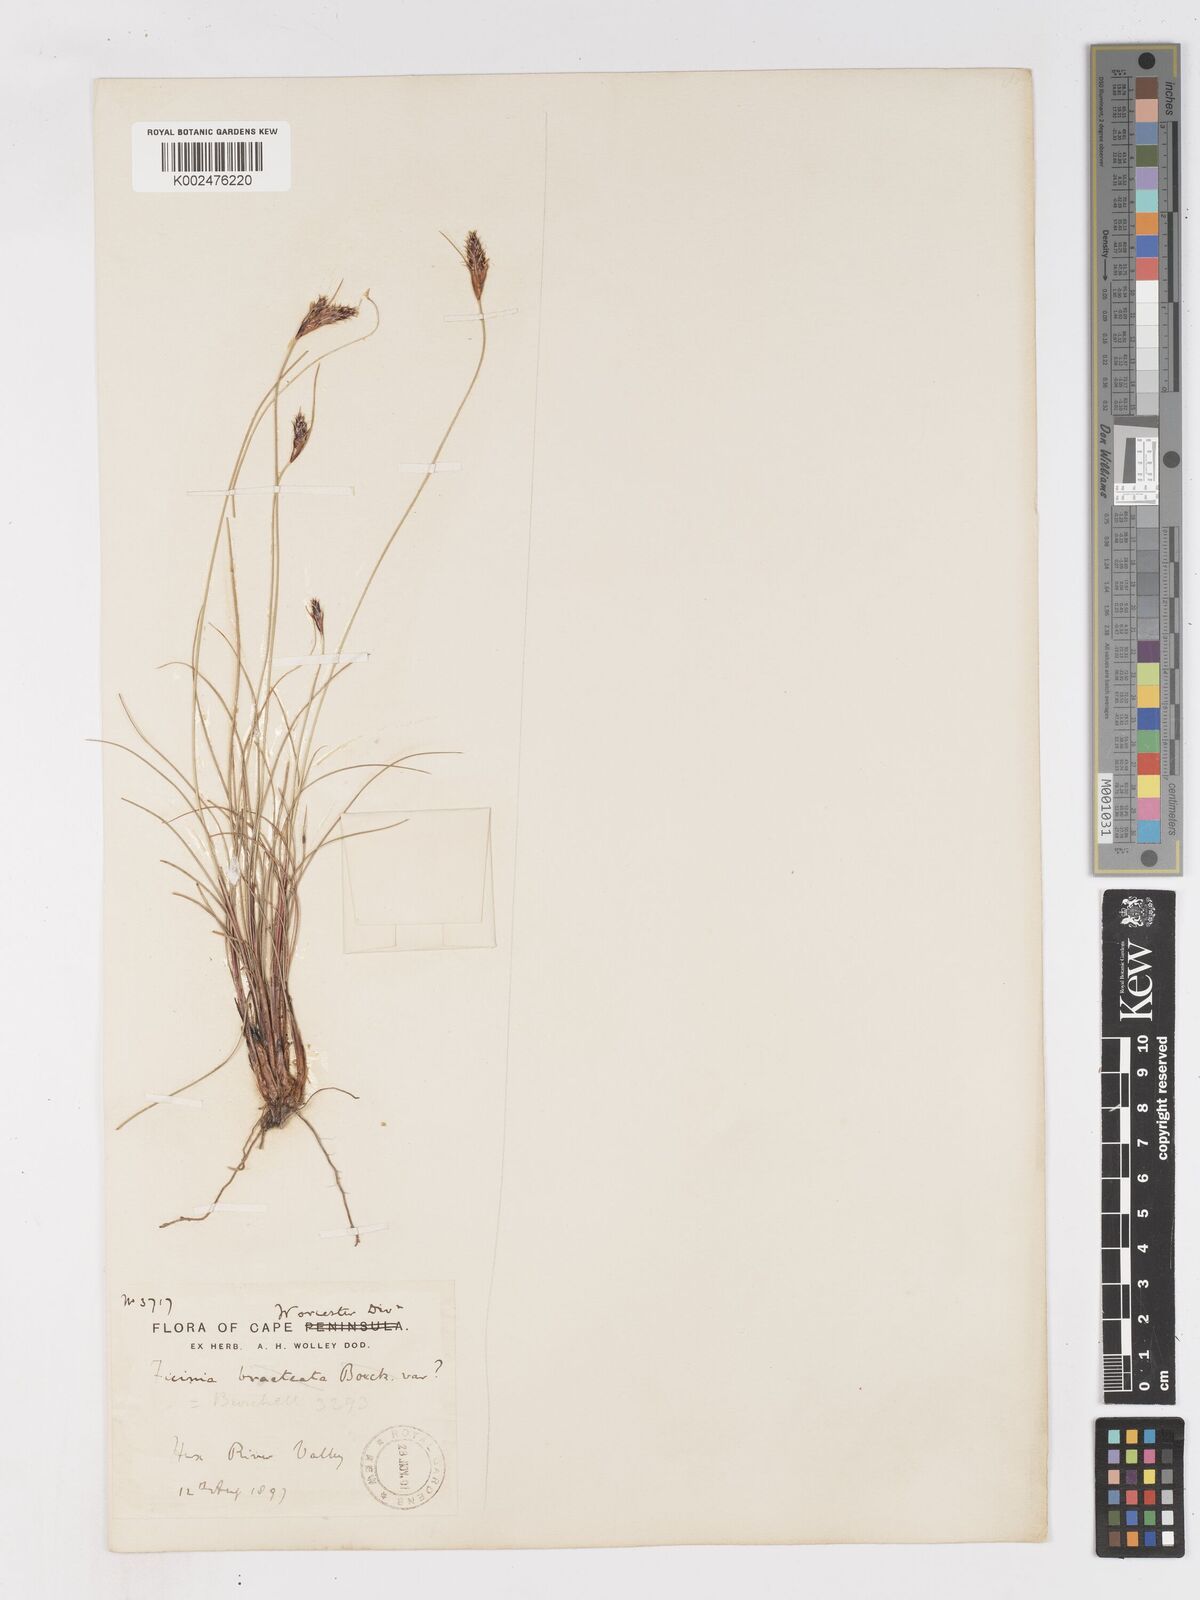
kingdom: Plantae
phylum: Tracheophyta
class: Liliopsida
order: Poales
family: Cyperaceae
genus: Ficinia
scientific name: Ficinia nigrescens
